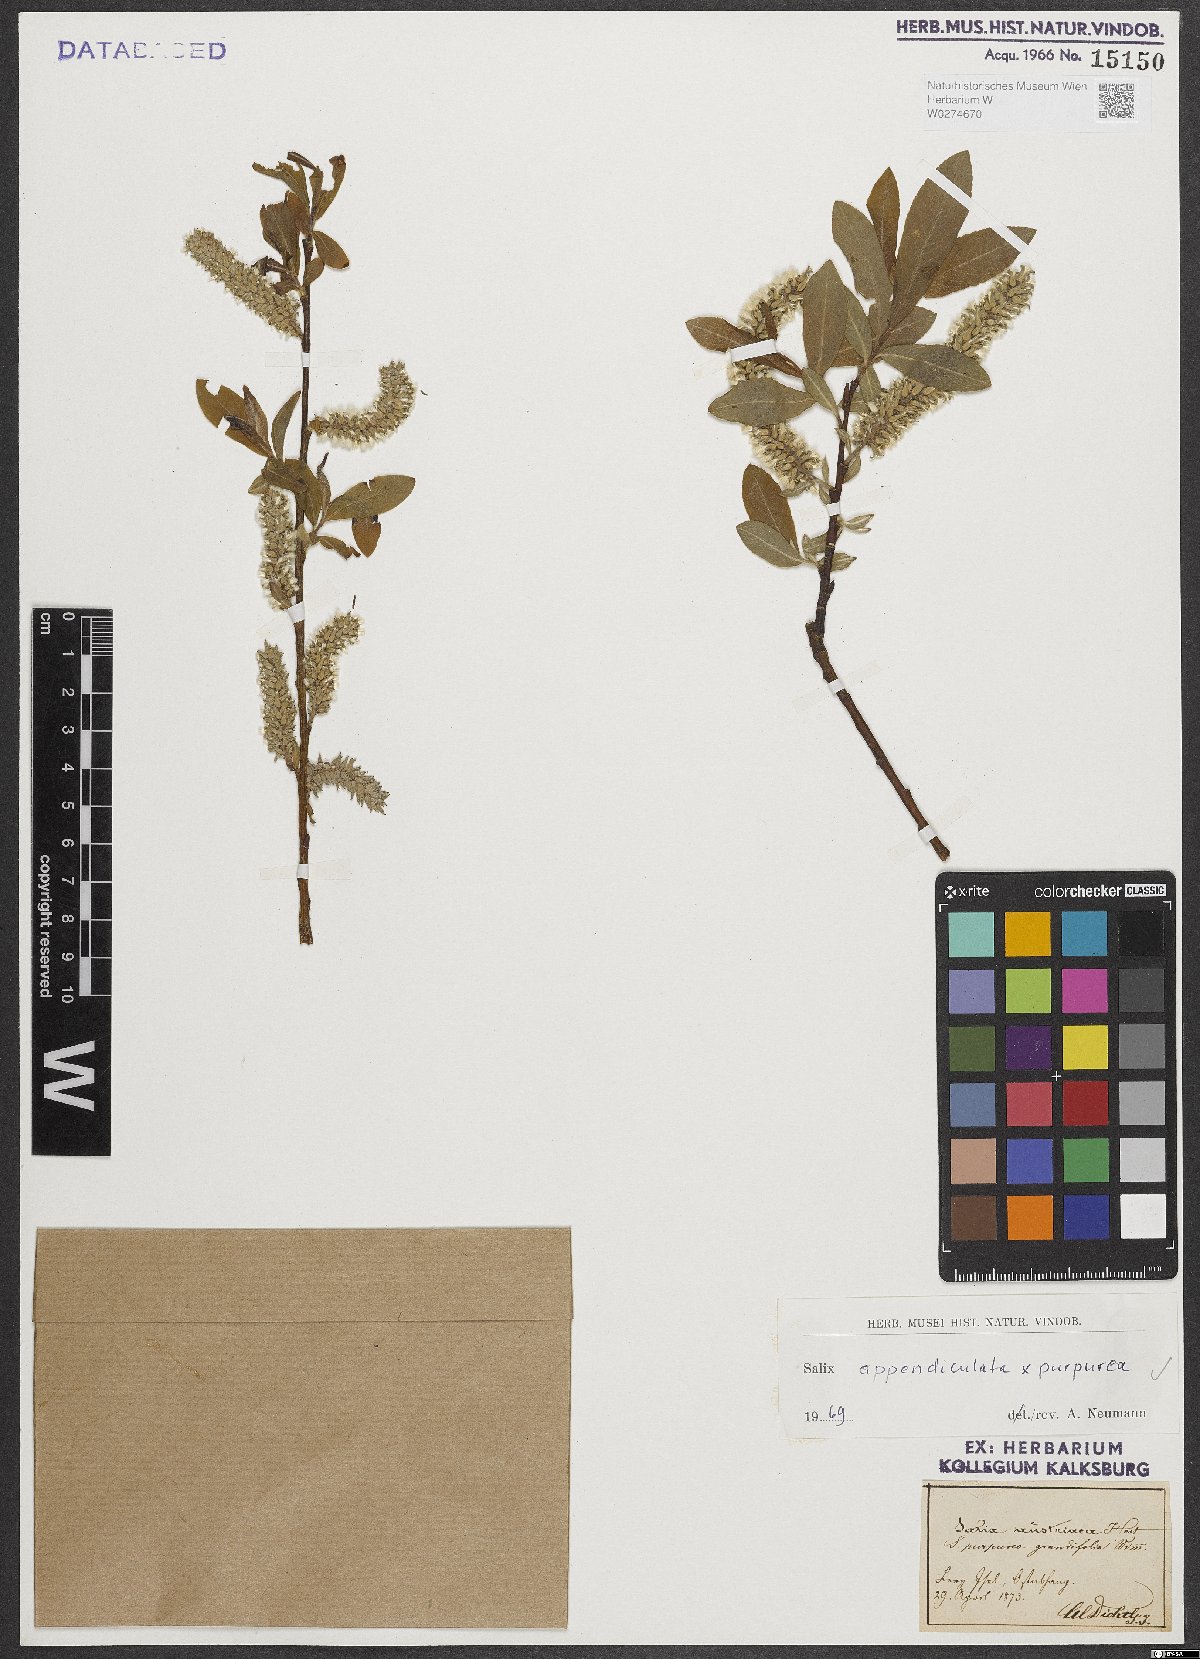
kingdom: Plantae
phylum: Tracheophyta
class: Magnoliopsida
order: Malpighiales
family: Salicaceae
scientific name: Salicaceae
